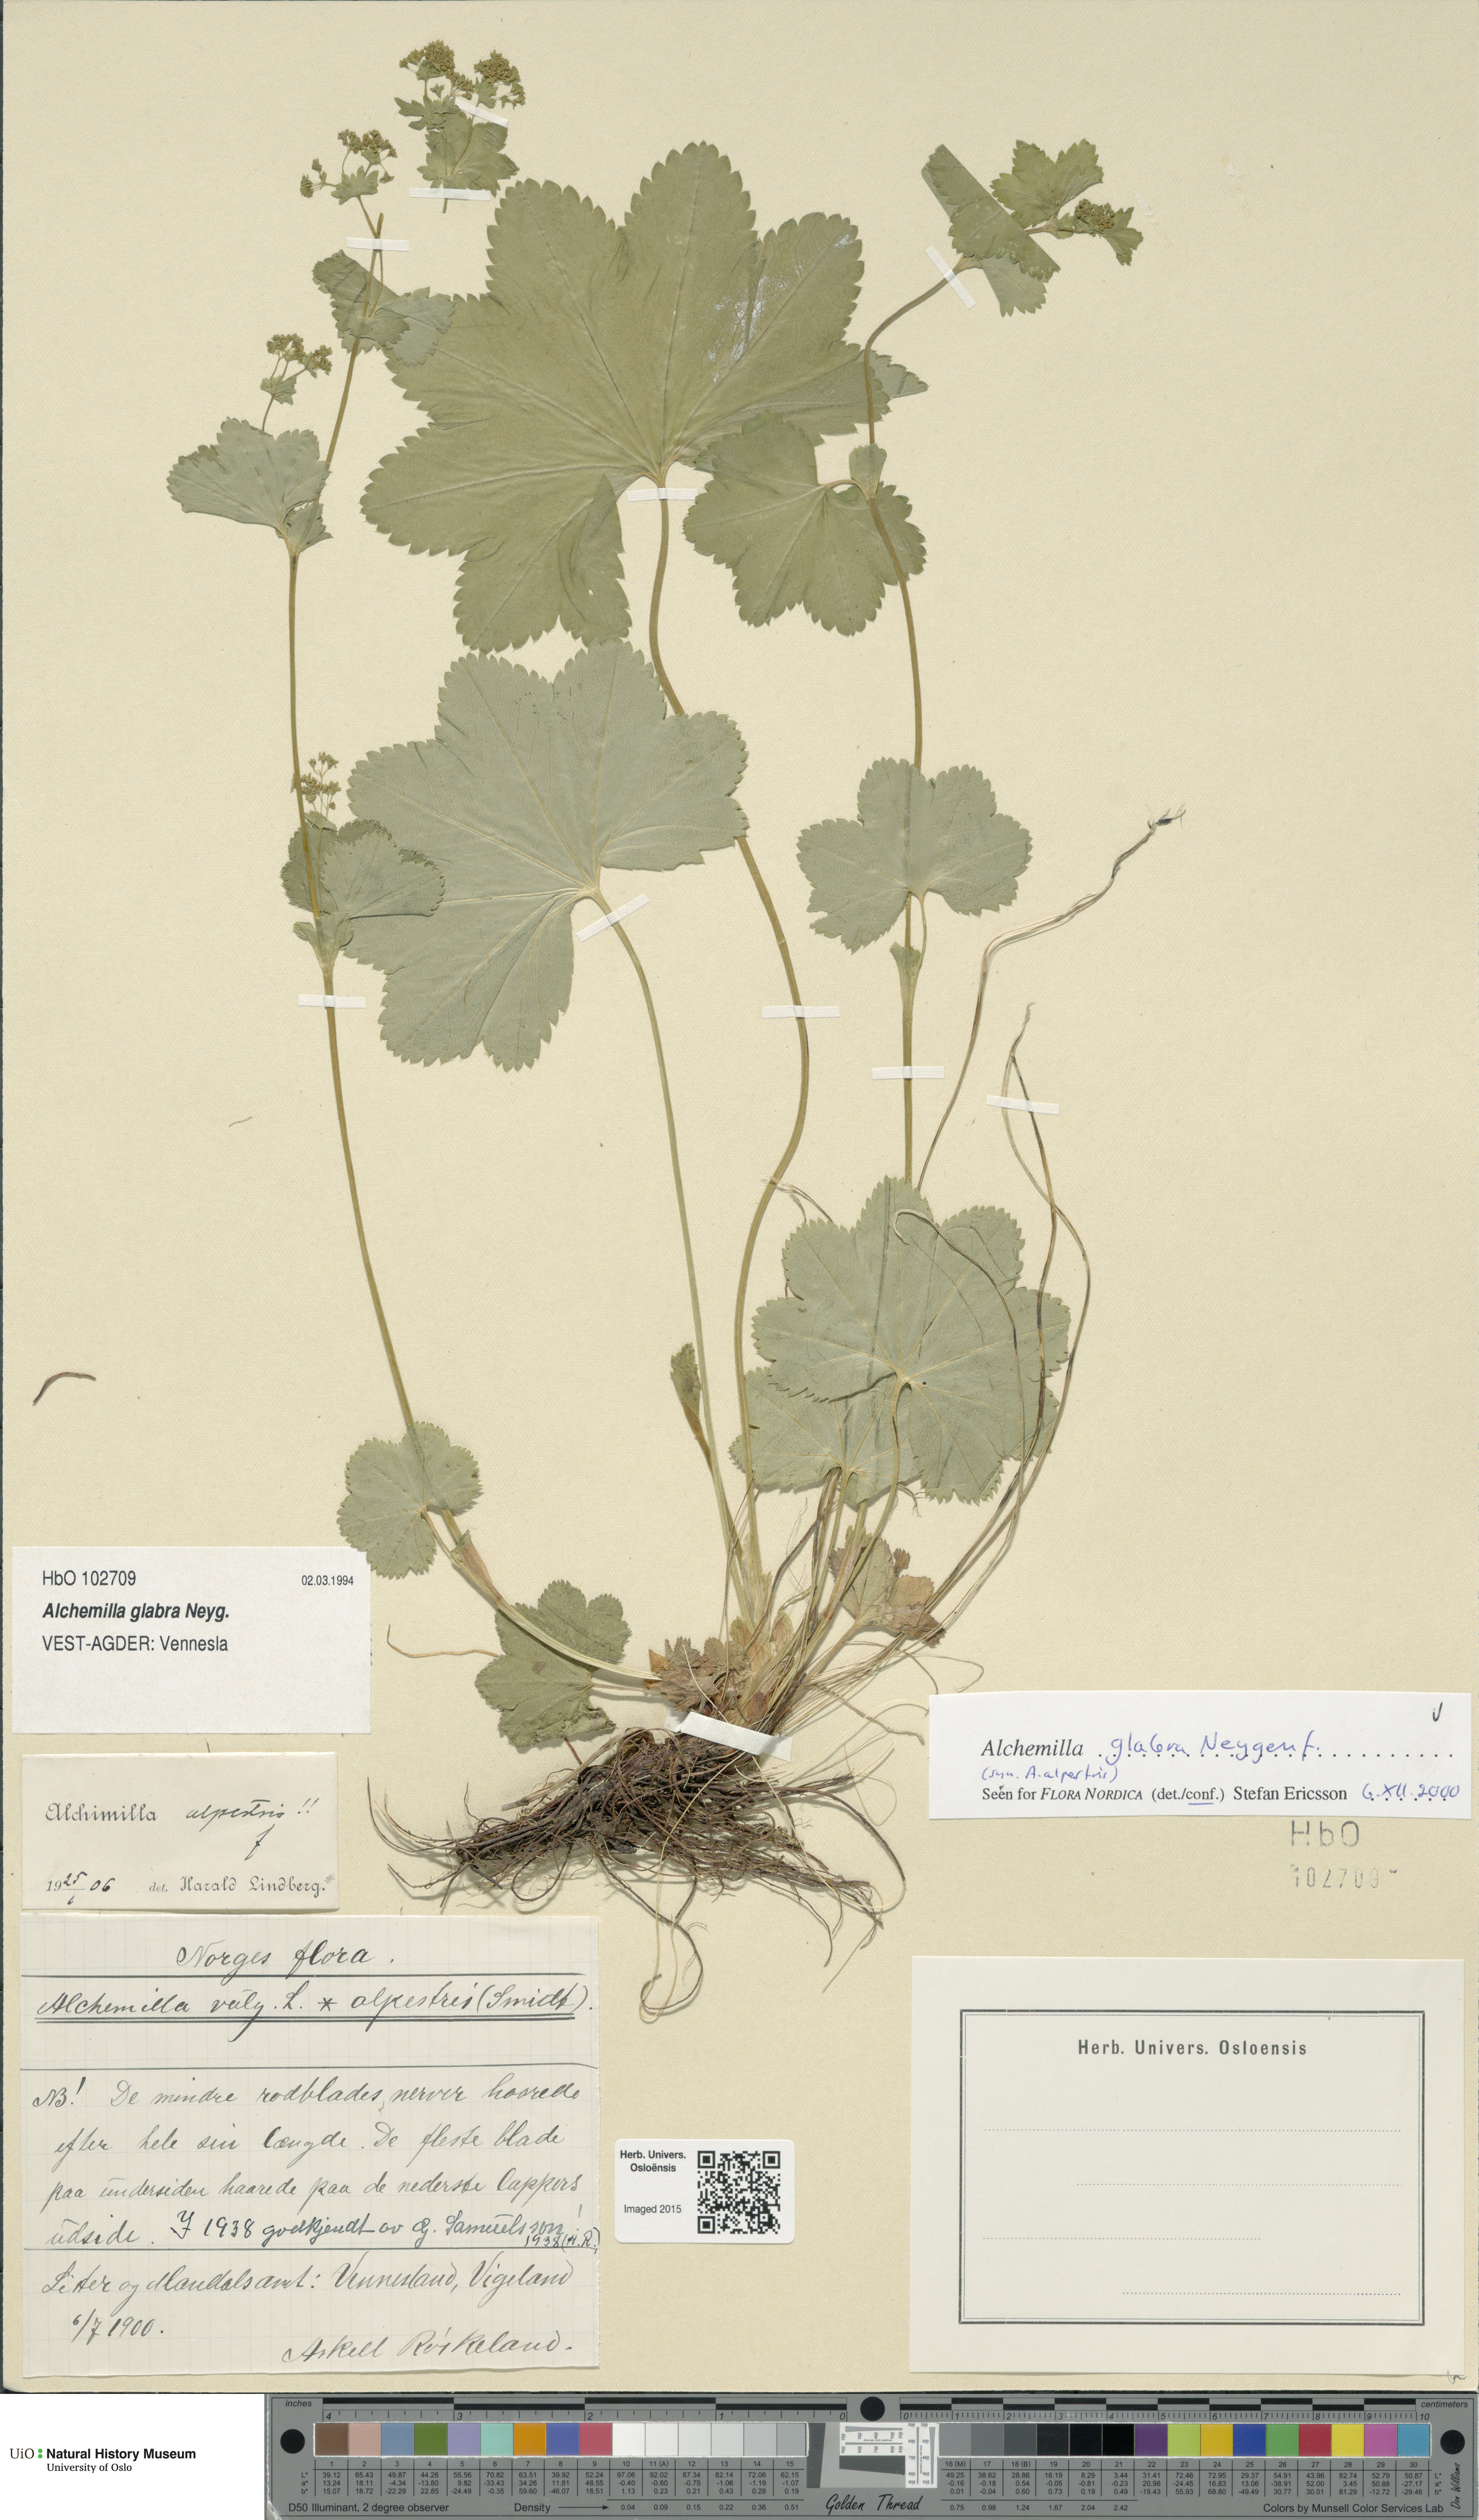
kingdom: Plantae
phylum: Tracheophyta
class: Magnoliopsida
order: Rosales
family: Rosaceae
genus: Alchemilla
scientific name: Alchemilla glabra
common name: Smooth lady's-mantle
